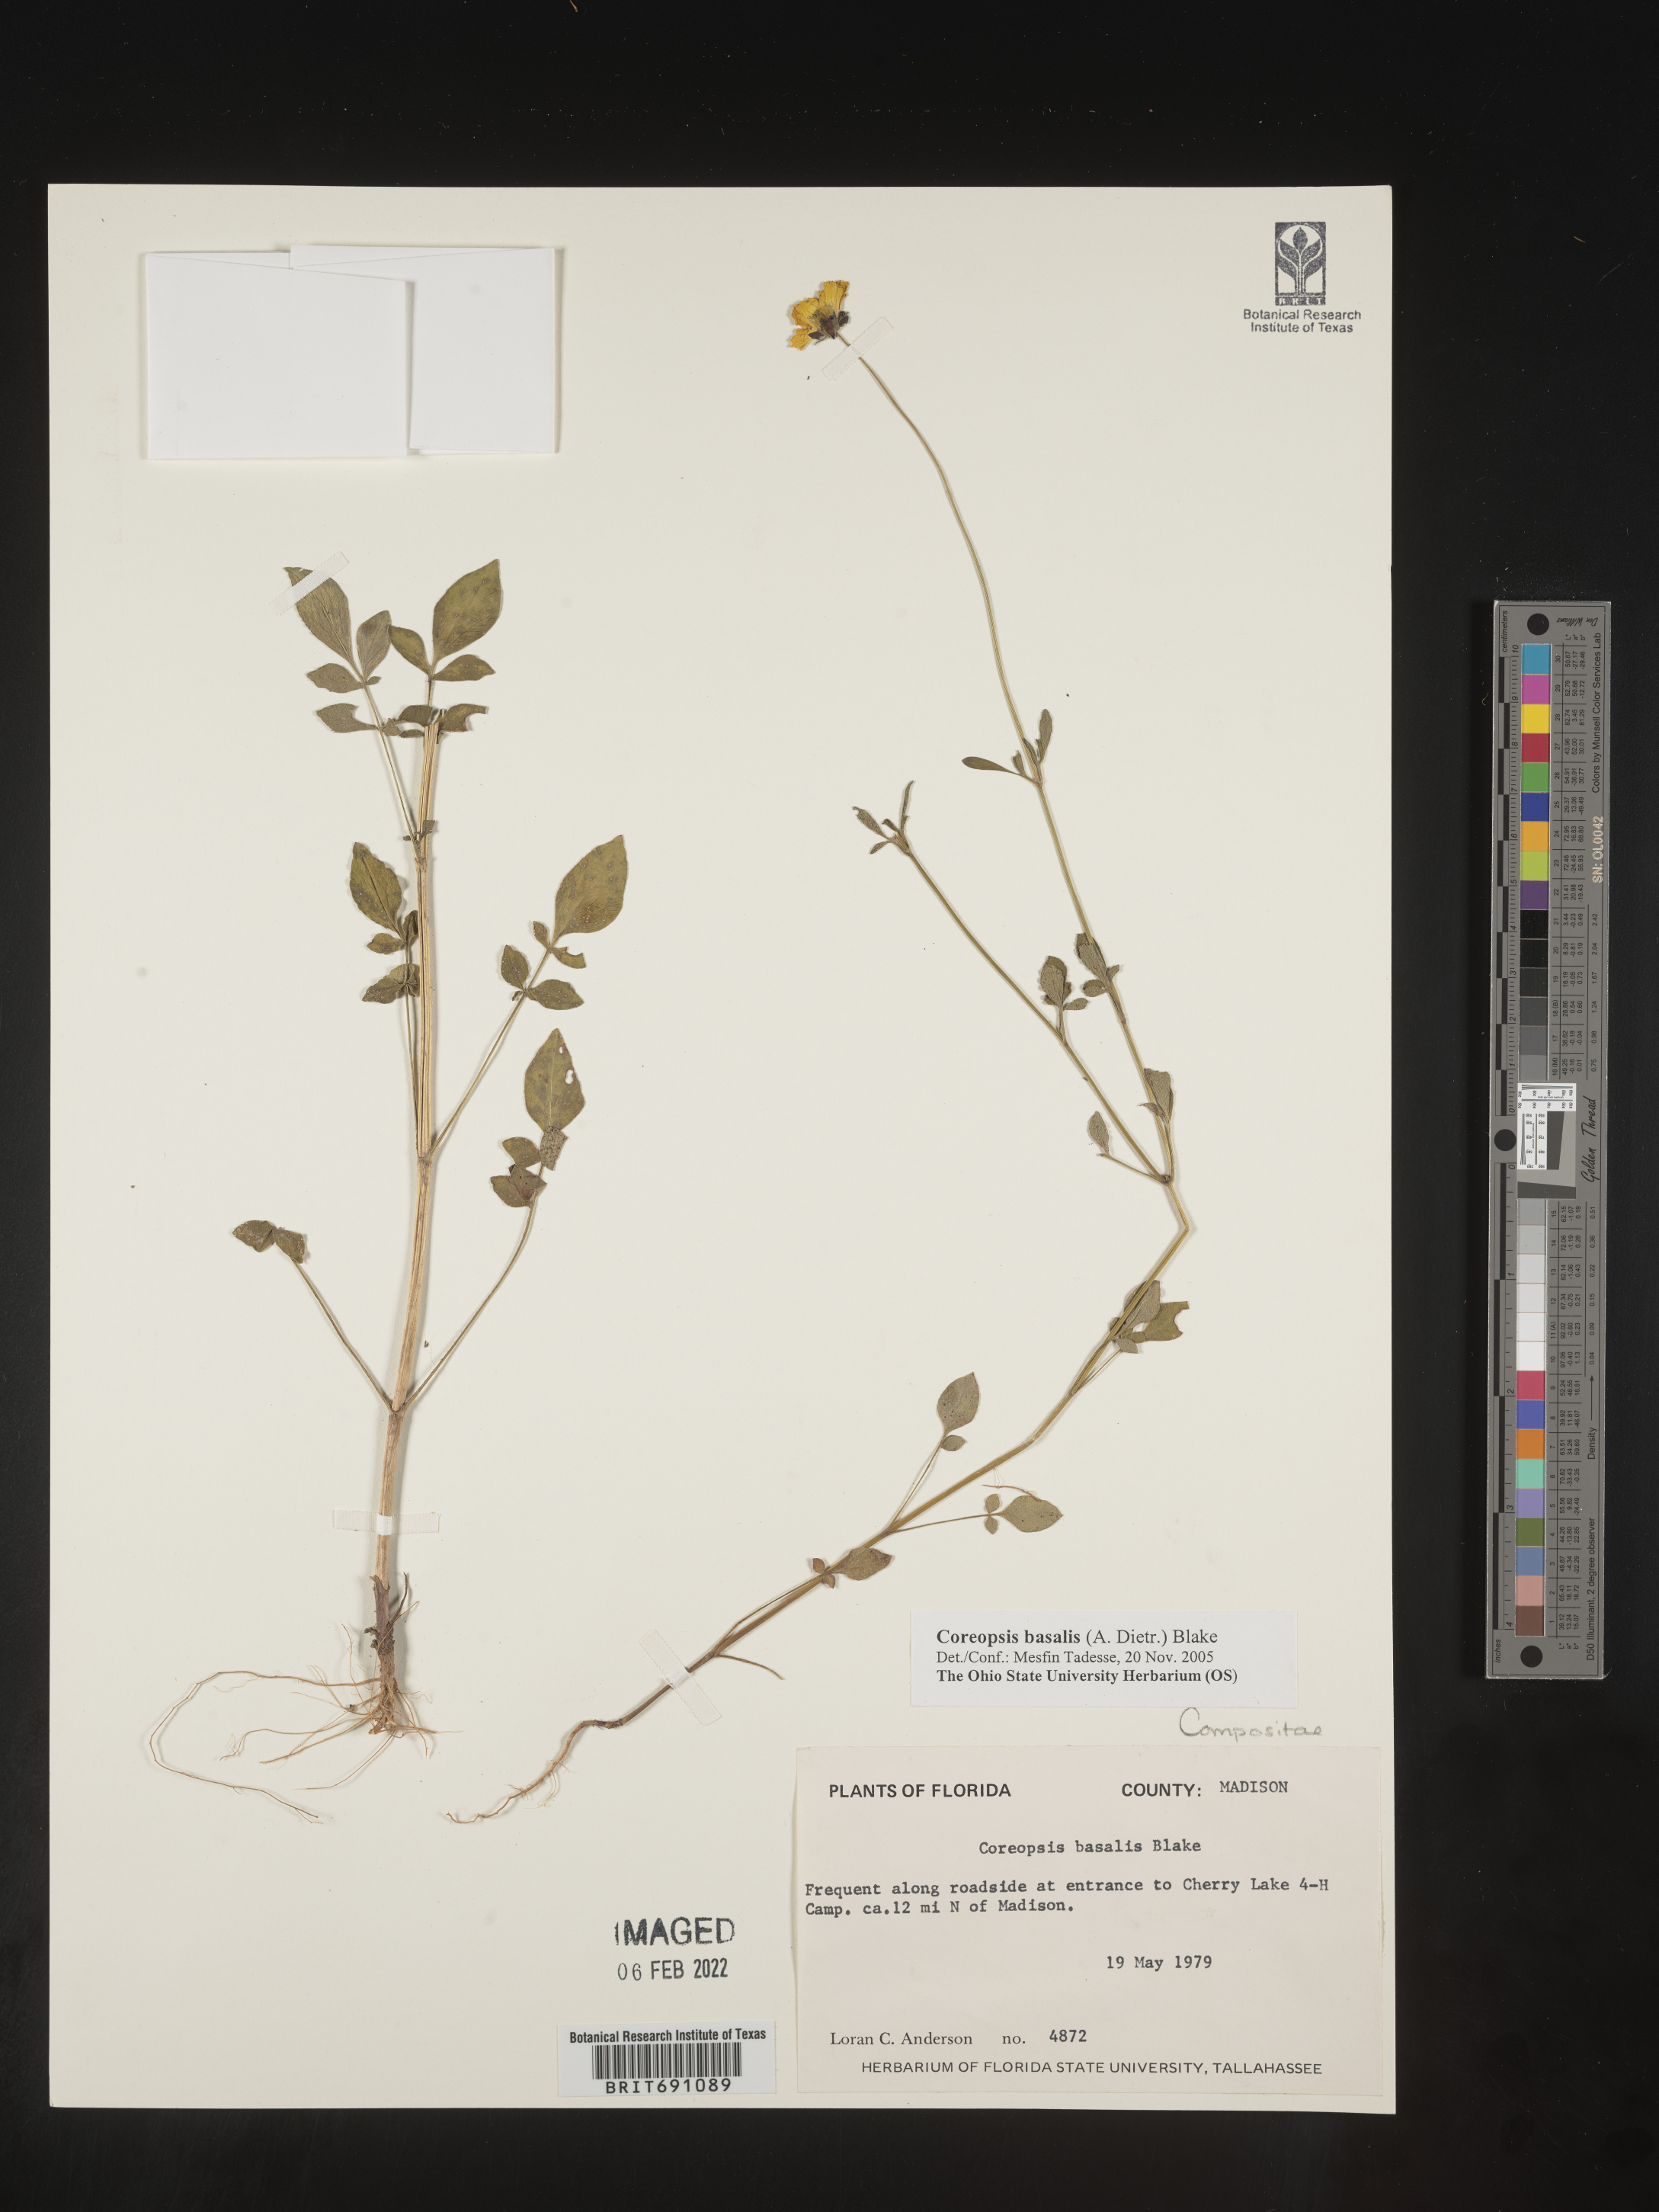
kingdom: Plantae
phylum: Tracheophyta
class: Magnoliopsida
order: Asterales
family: Asteraceae
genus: Coreopsis
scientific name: Coreopsis
